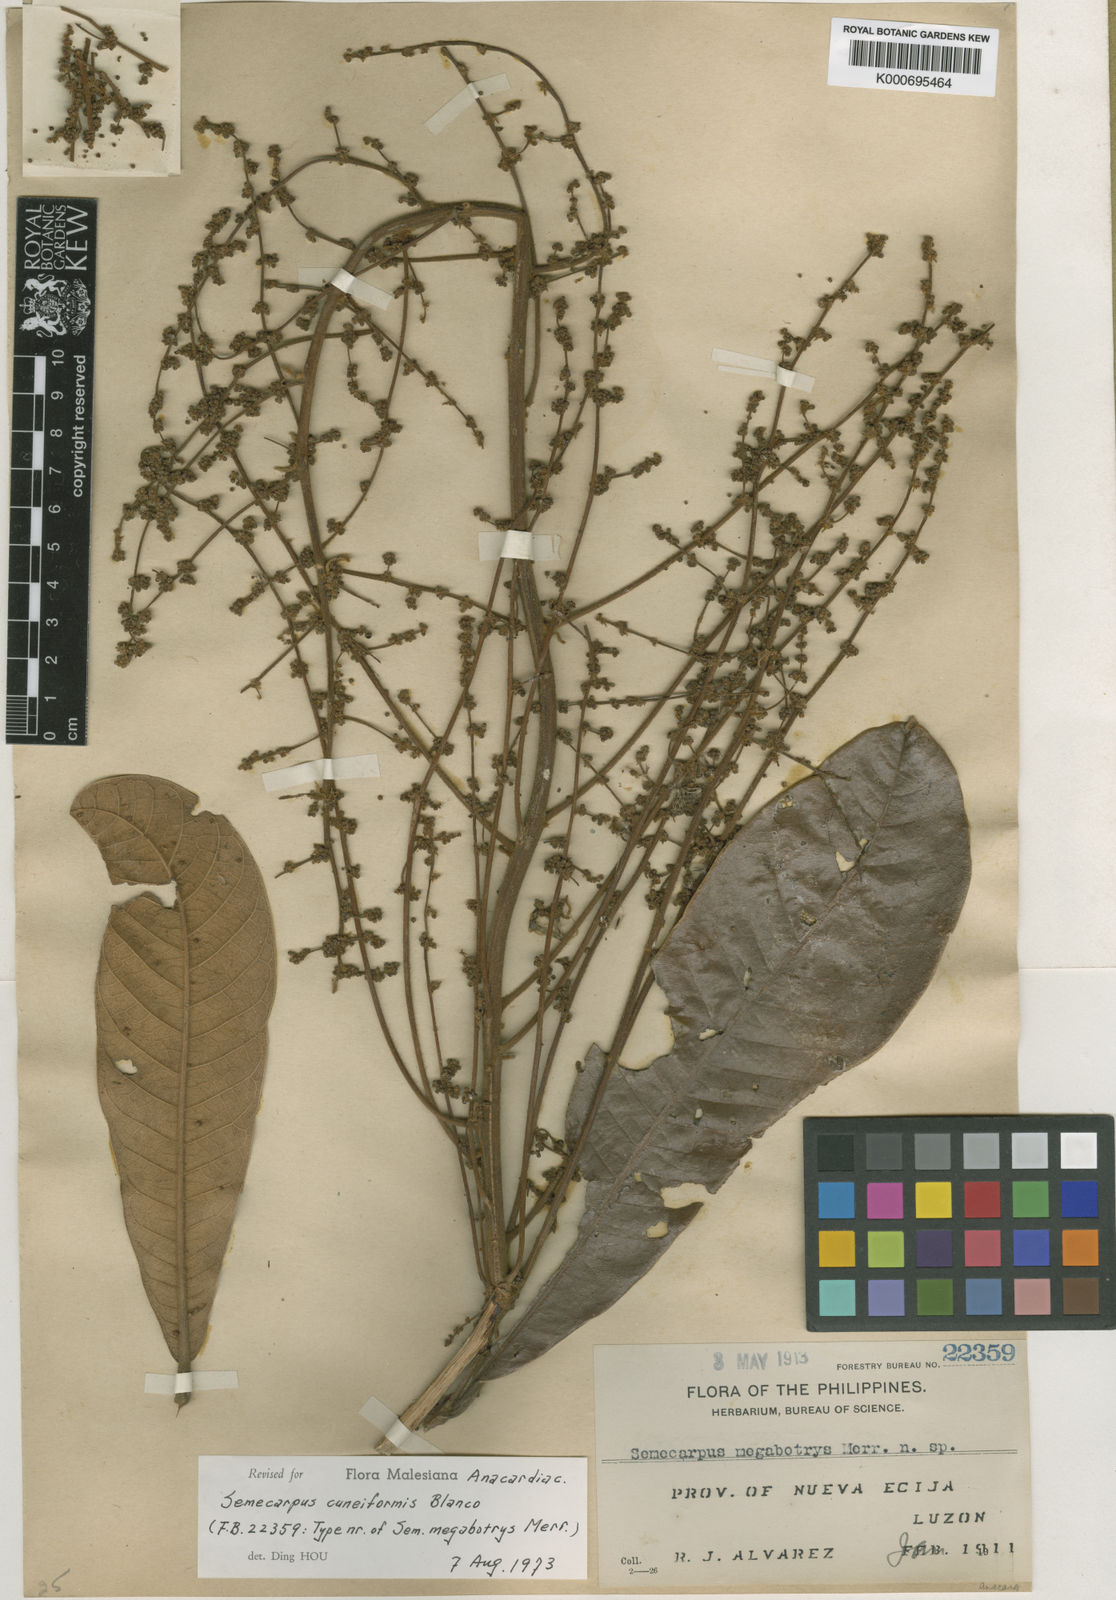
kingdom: Plantae
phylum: Tracheophyta
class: Magnoliopsida
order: Sapindales
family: Anacardiaceae
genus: Semecarpus
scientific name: Semecarpus cuneiformis
